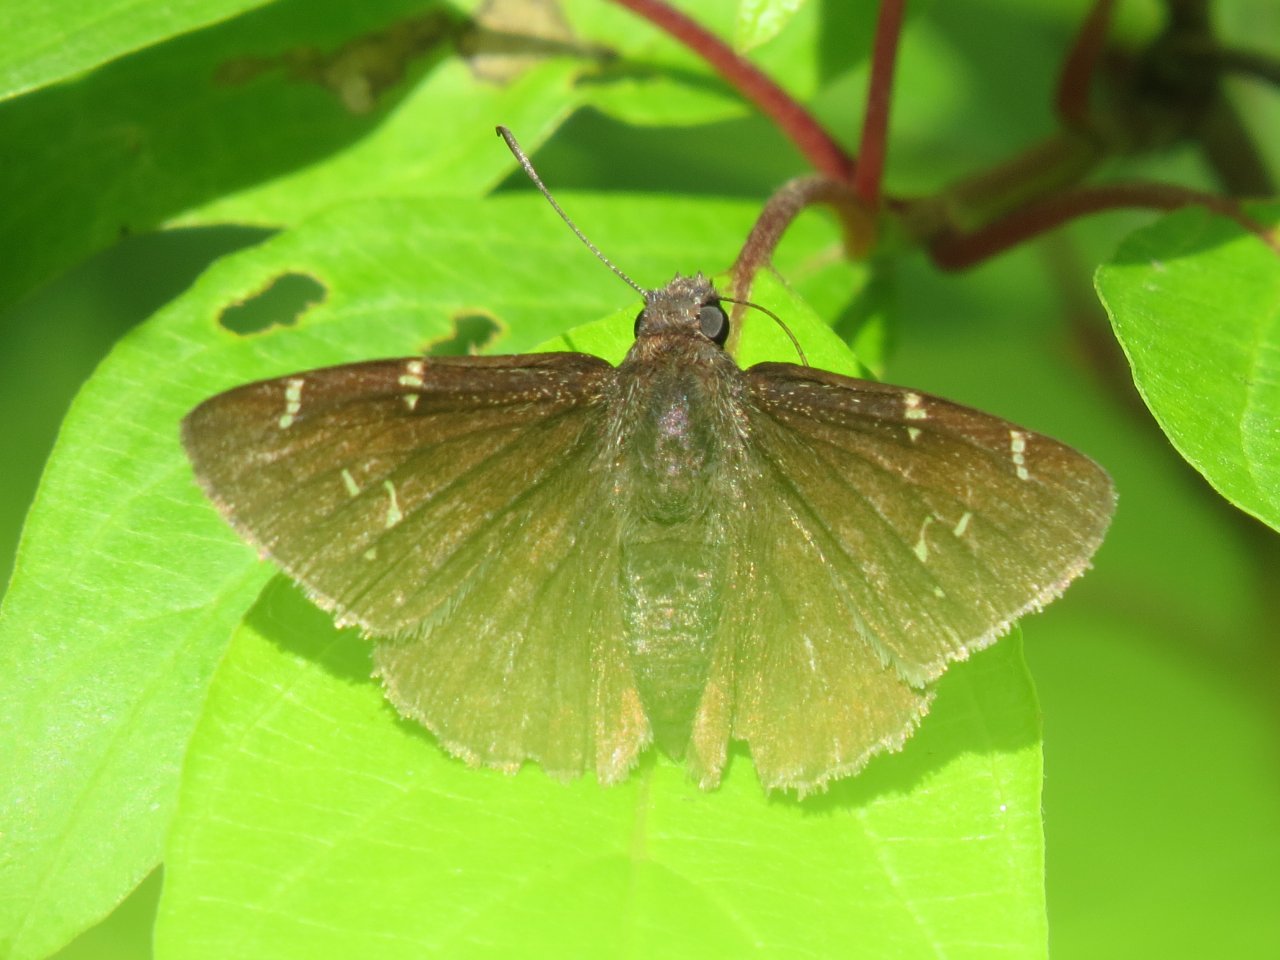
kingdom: Animalia
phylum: Arthropoda
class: Insecta
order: Lepidoptera
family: Hesperiidae
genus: Autochton
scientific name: Autochton
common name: Northern Cloudywing
